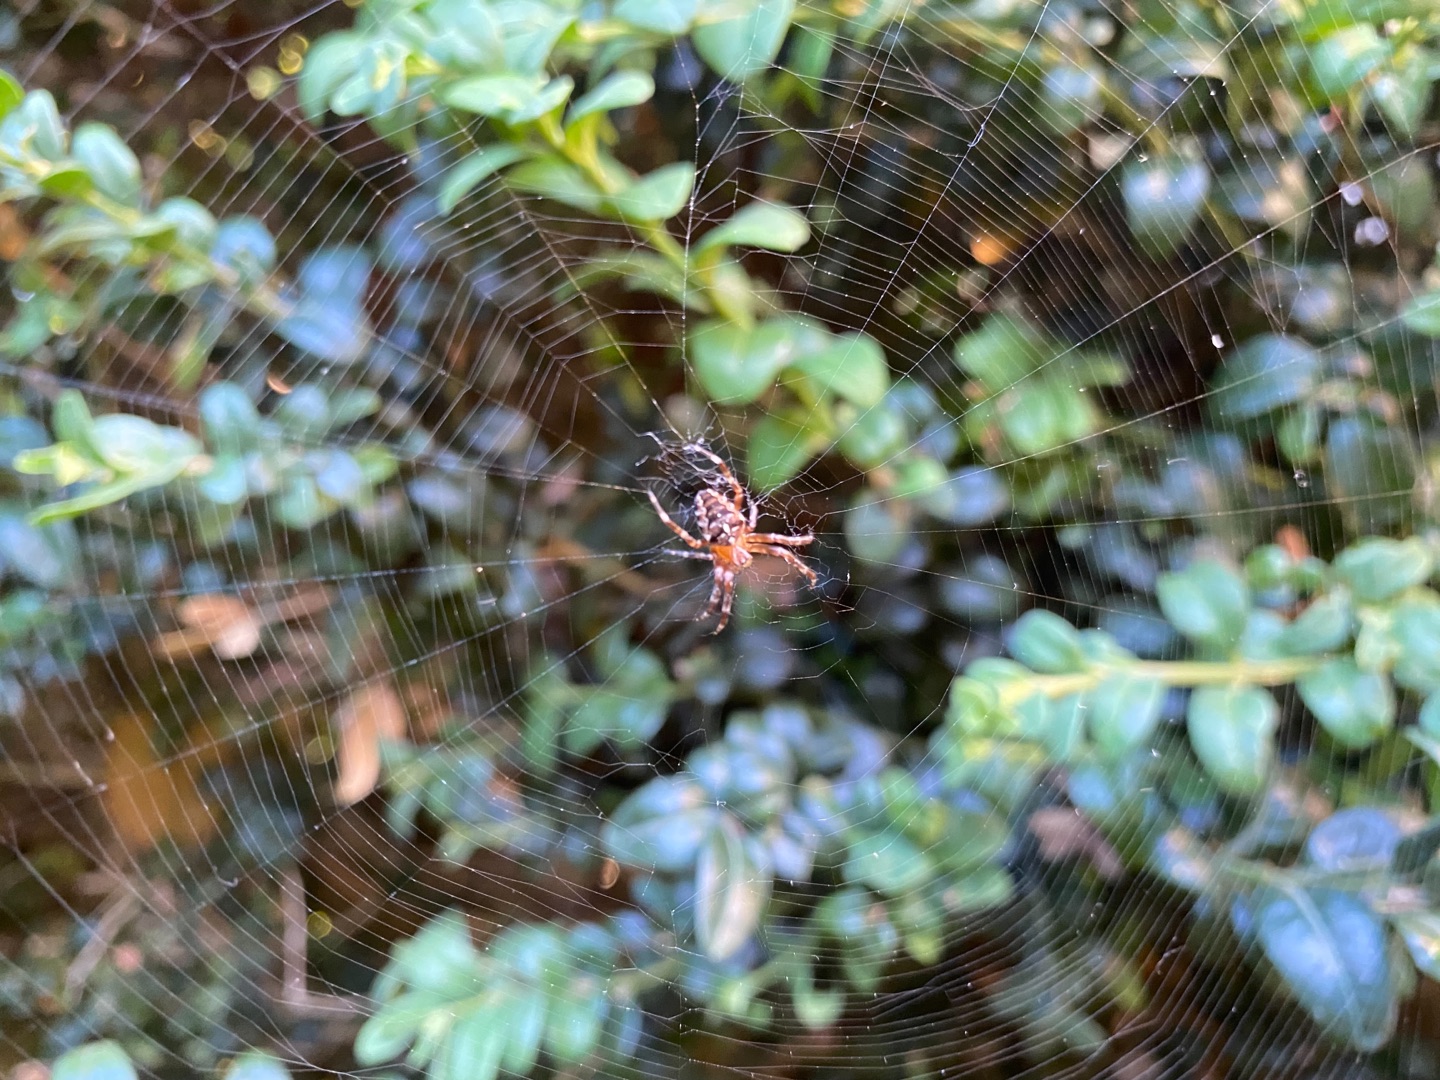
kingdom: Animalia
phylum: Arthropoda
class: Arachnida
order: Araneae
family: Araneidae
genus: Araneus
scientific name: Araneus diadematus
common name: Korsedderkop
